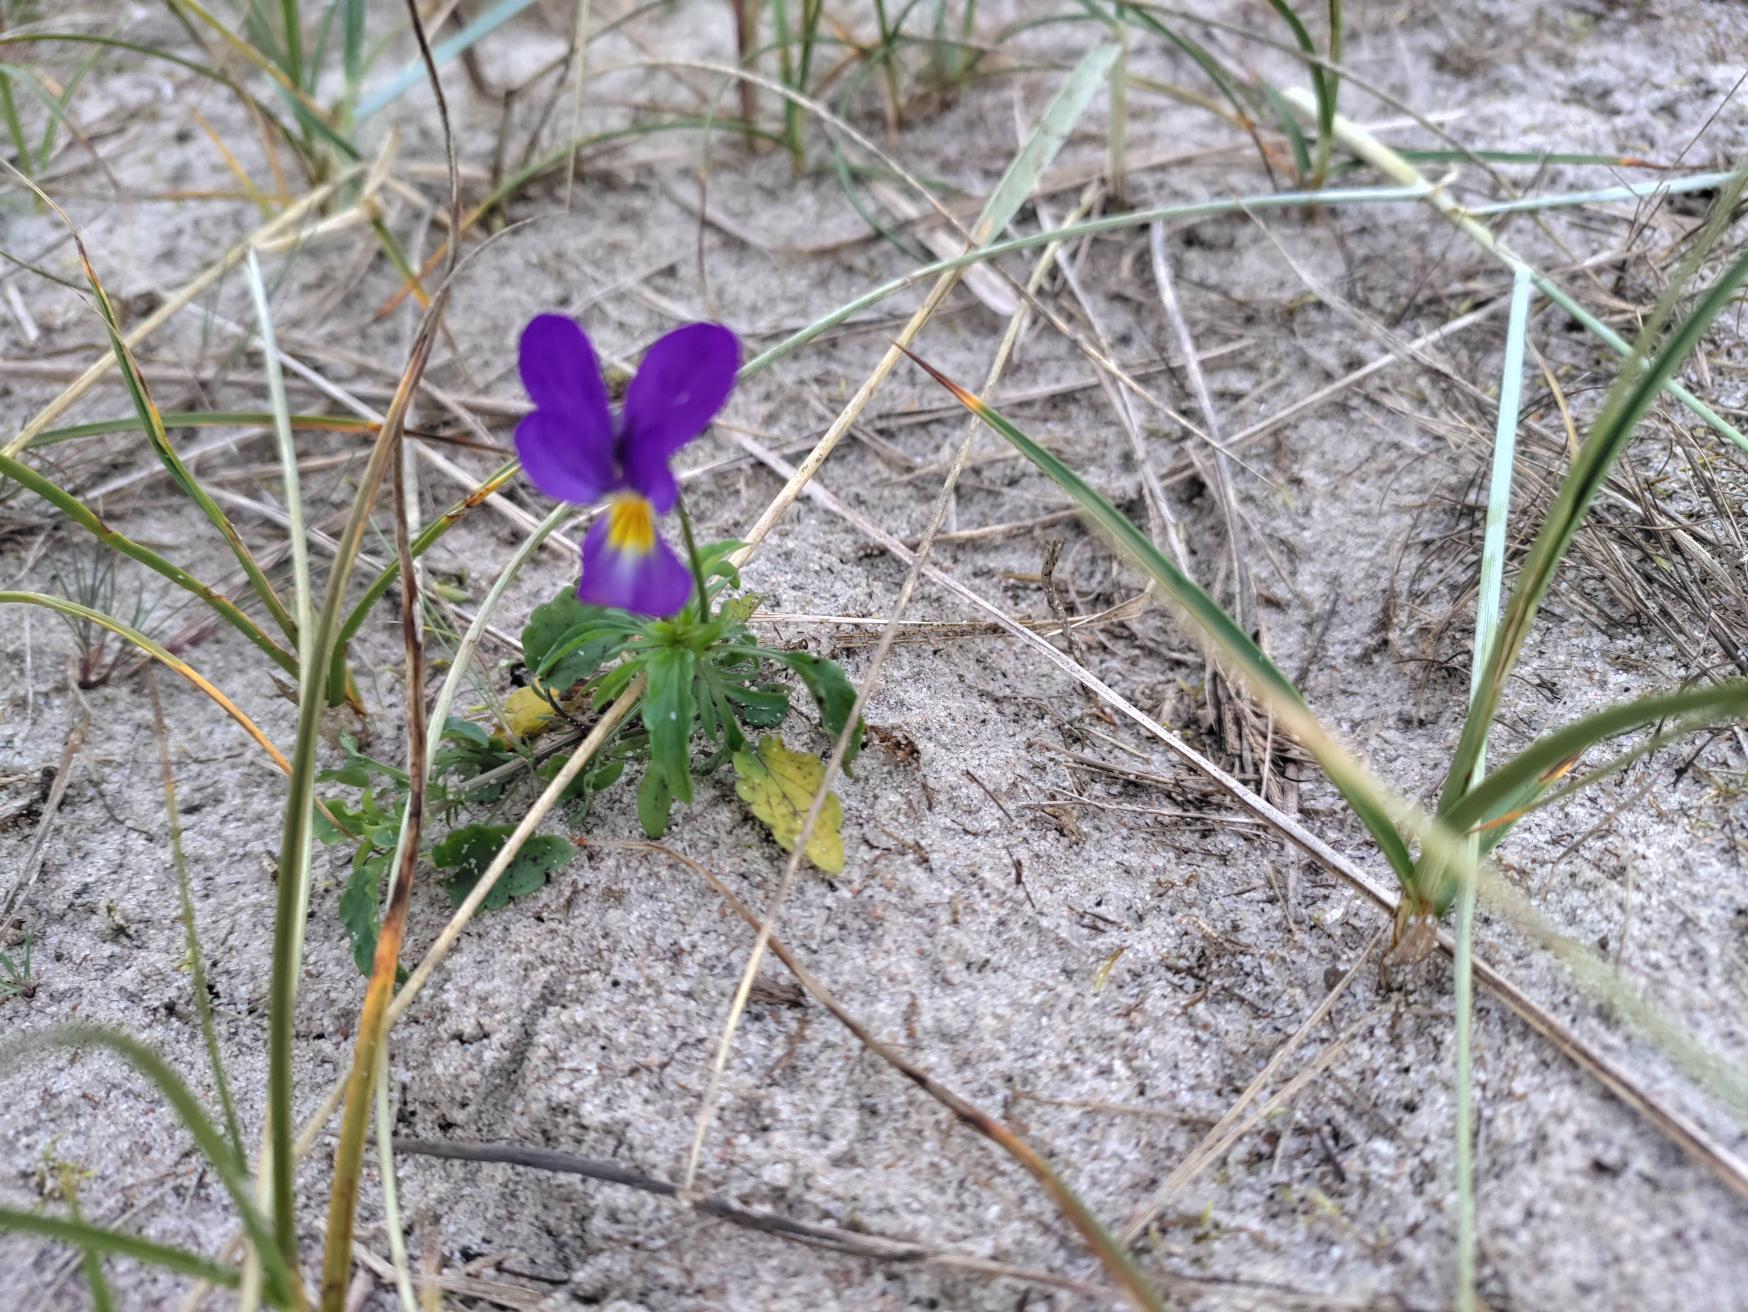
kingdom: Plantae
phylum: Tracheophyta
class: Magnoliopsida
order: Malpighiales
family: Violaceae
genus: Viola
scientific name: Viola tricolor
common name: Stedmoderblomst
